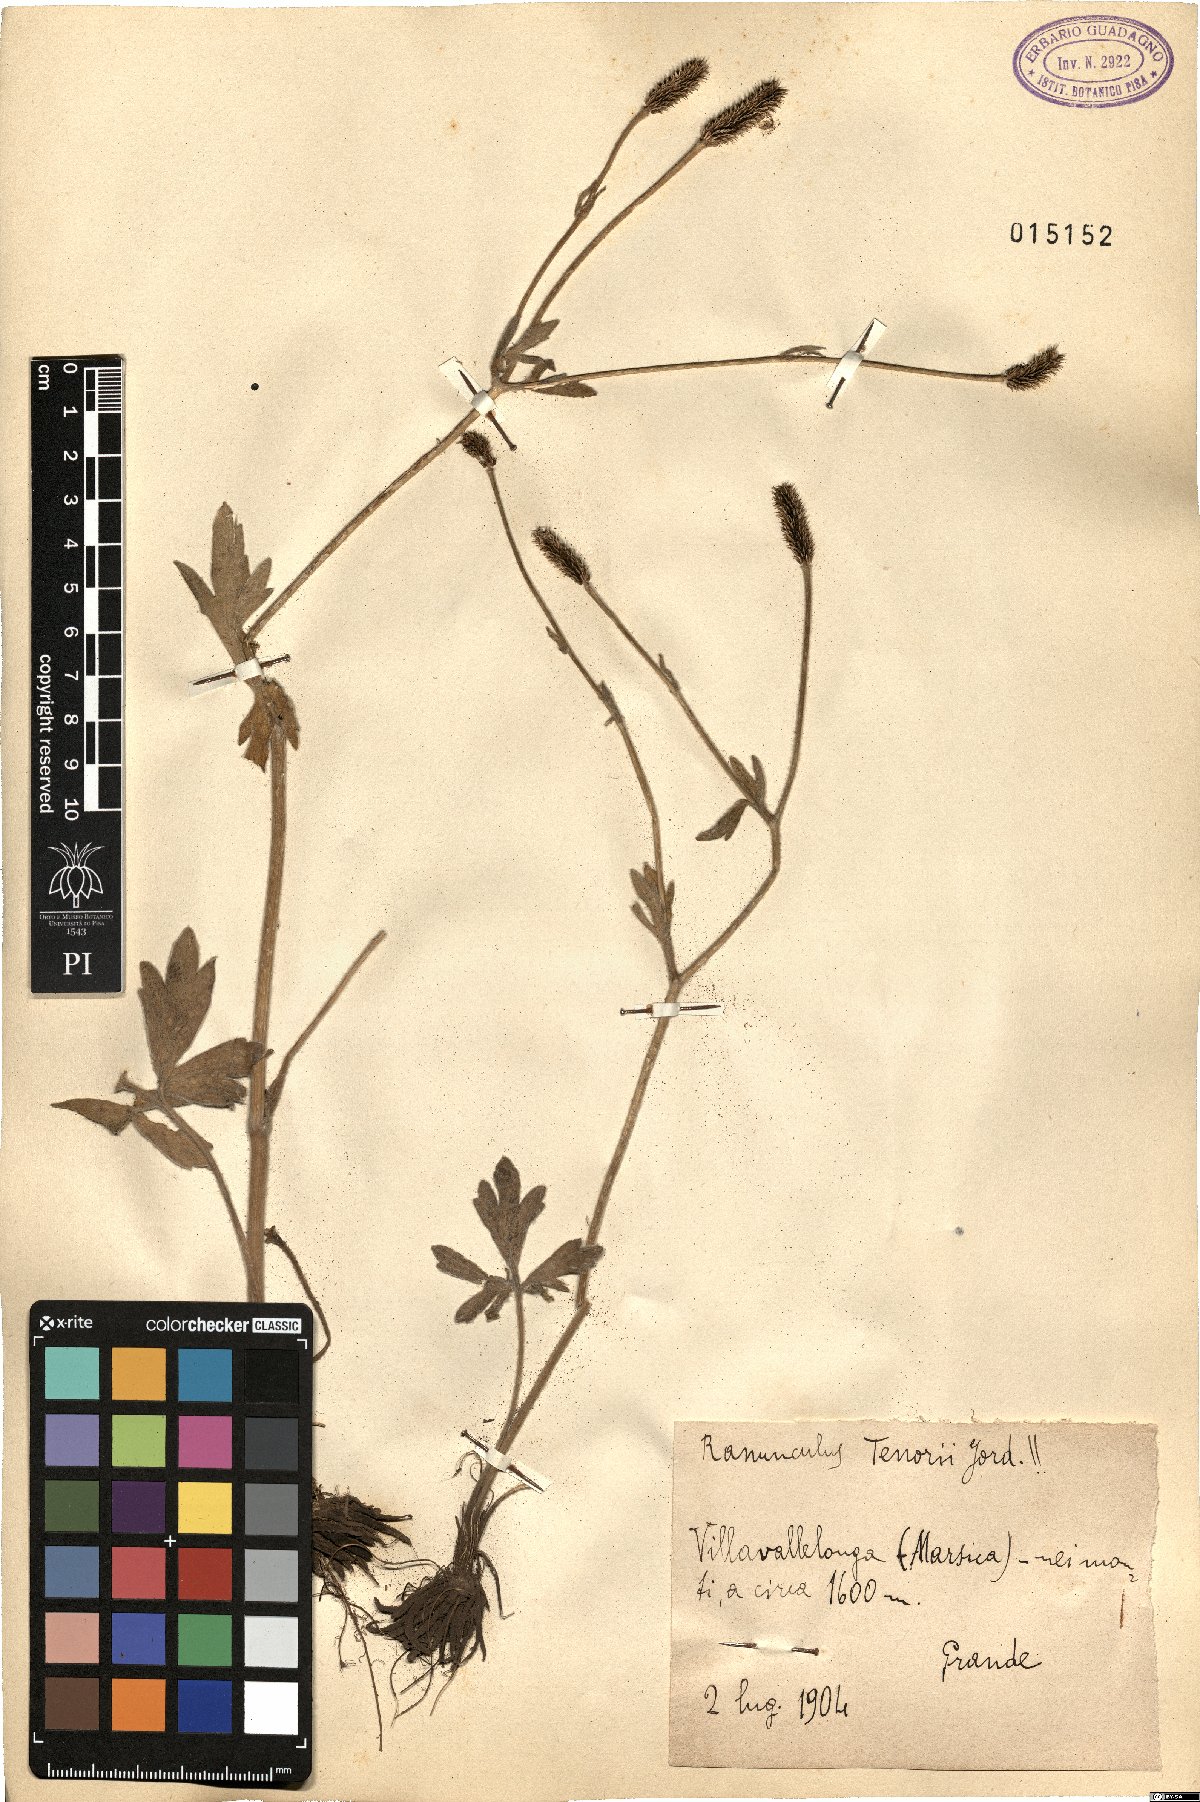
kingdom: Plantae
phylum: Tracheophyta
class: Magnoliopsida
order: Ranunculales
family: Ranunculaceae
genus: Ranunculus
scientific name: Ranunculus illyricus
